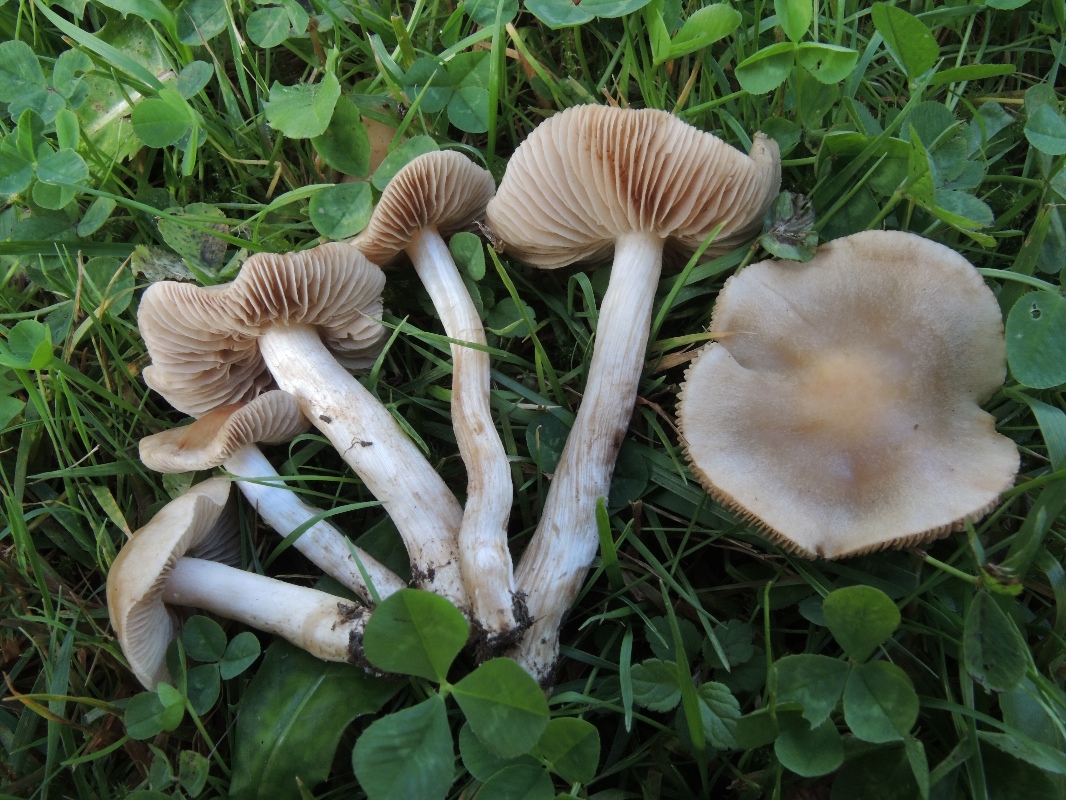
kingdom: Fungi
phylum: Basidiomycota
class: Agaricomycetes
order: Agaricales
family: Hymenogastraceae
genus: Hebeloma
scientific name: Hebeloma sacchariolens
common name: sødtduftende tåreblad
